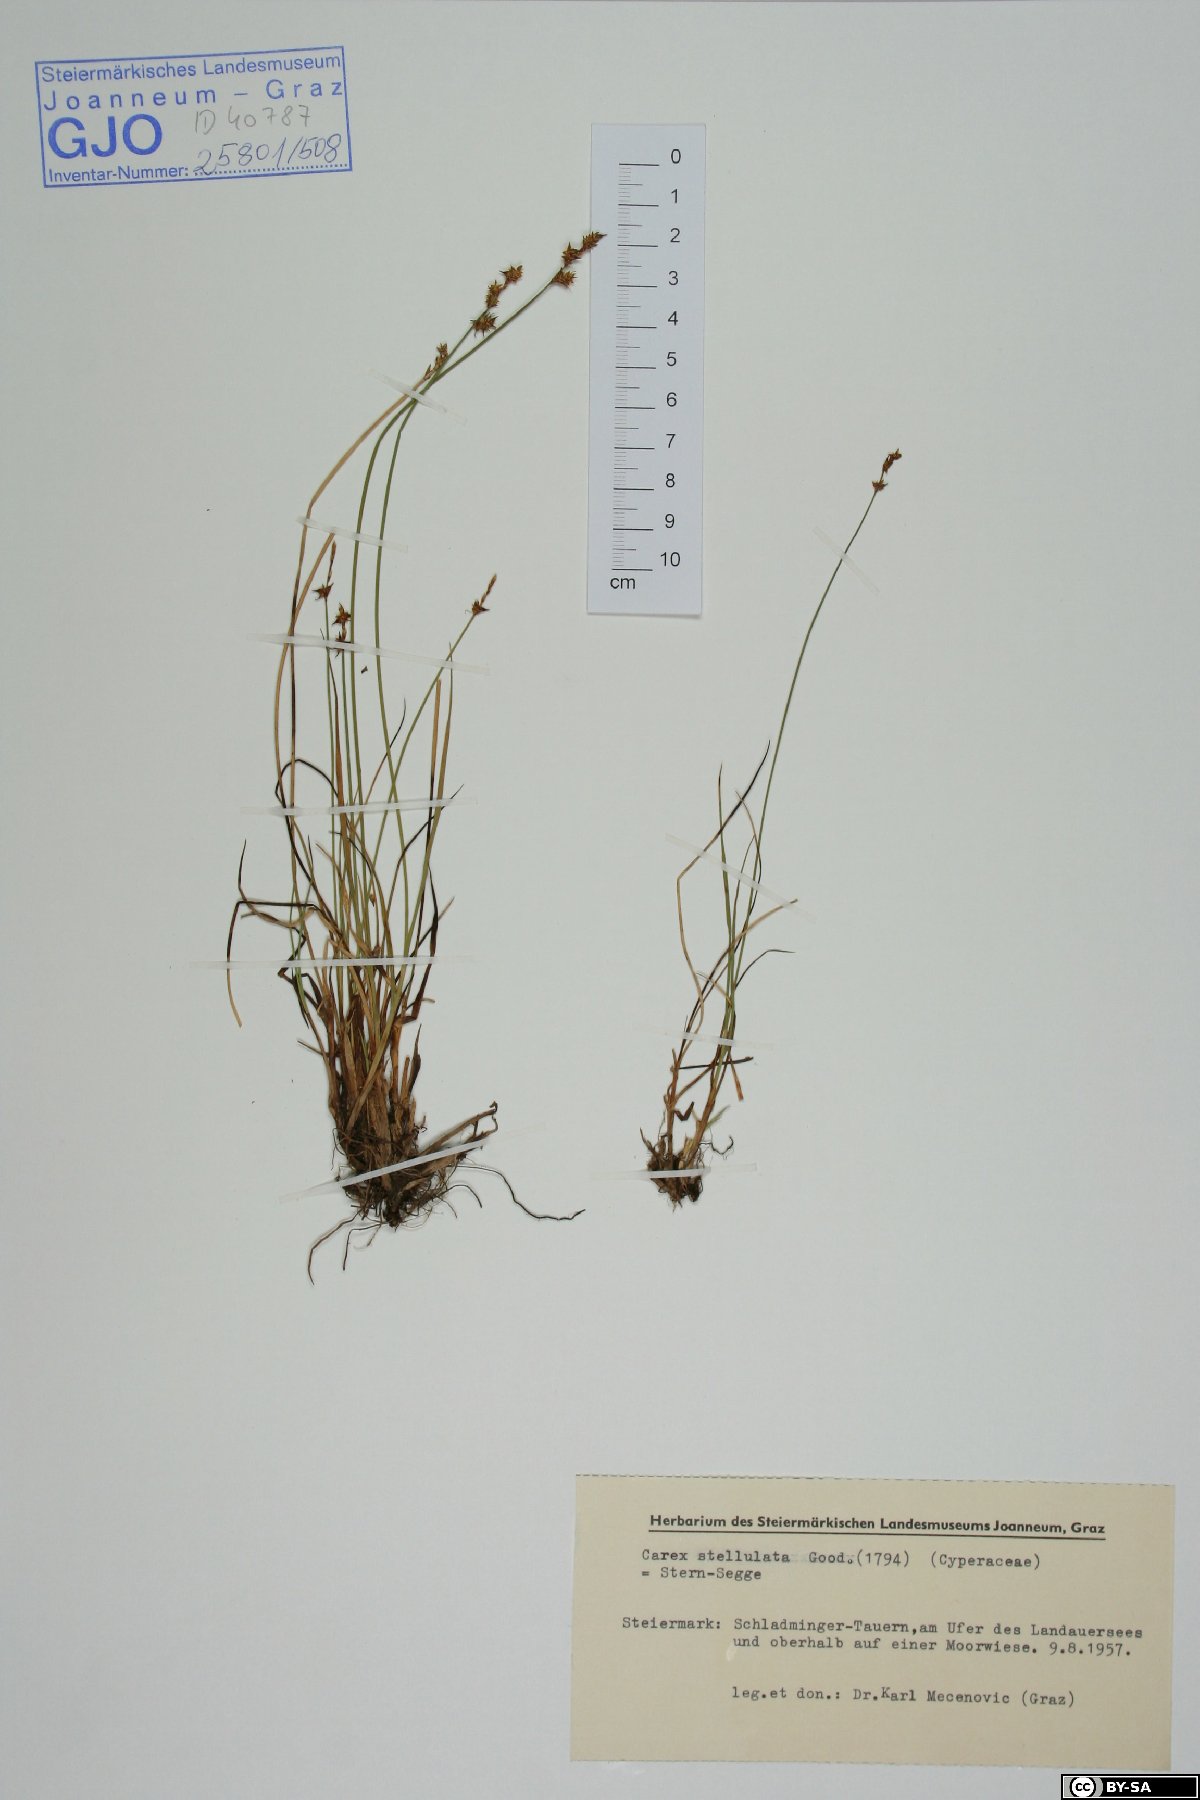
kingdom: Plantae
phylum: Tracheophyta
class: Liliopsida
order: Poales
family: Cyperaceae
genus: Carex
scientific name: Carex echinata
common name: Star sedge
